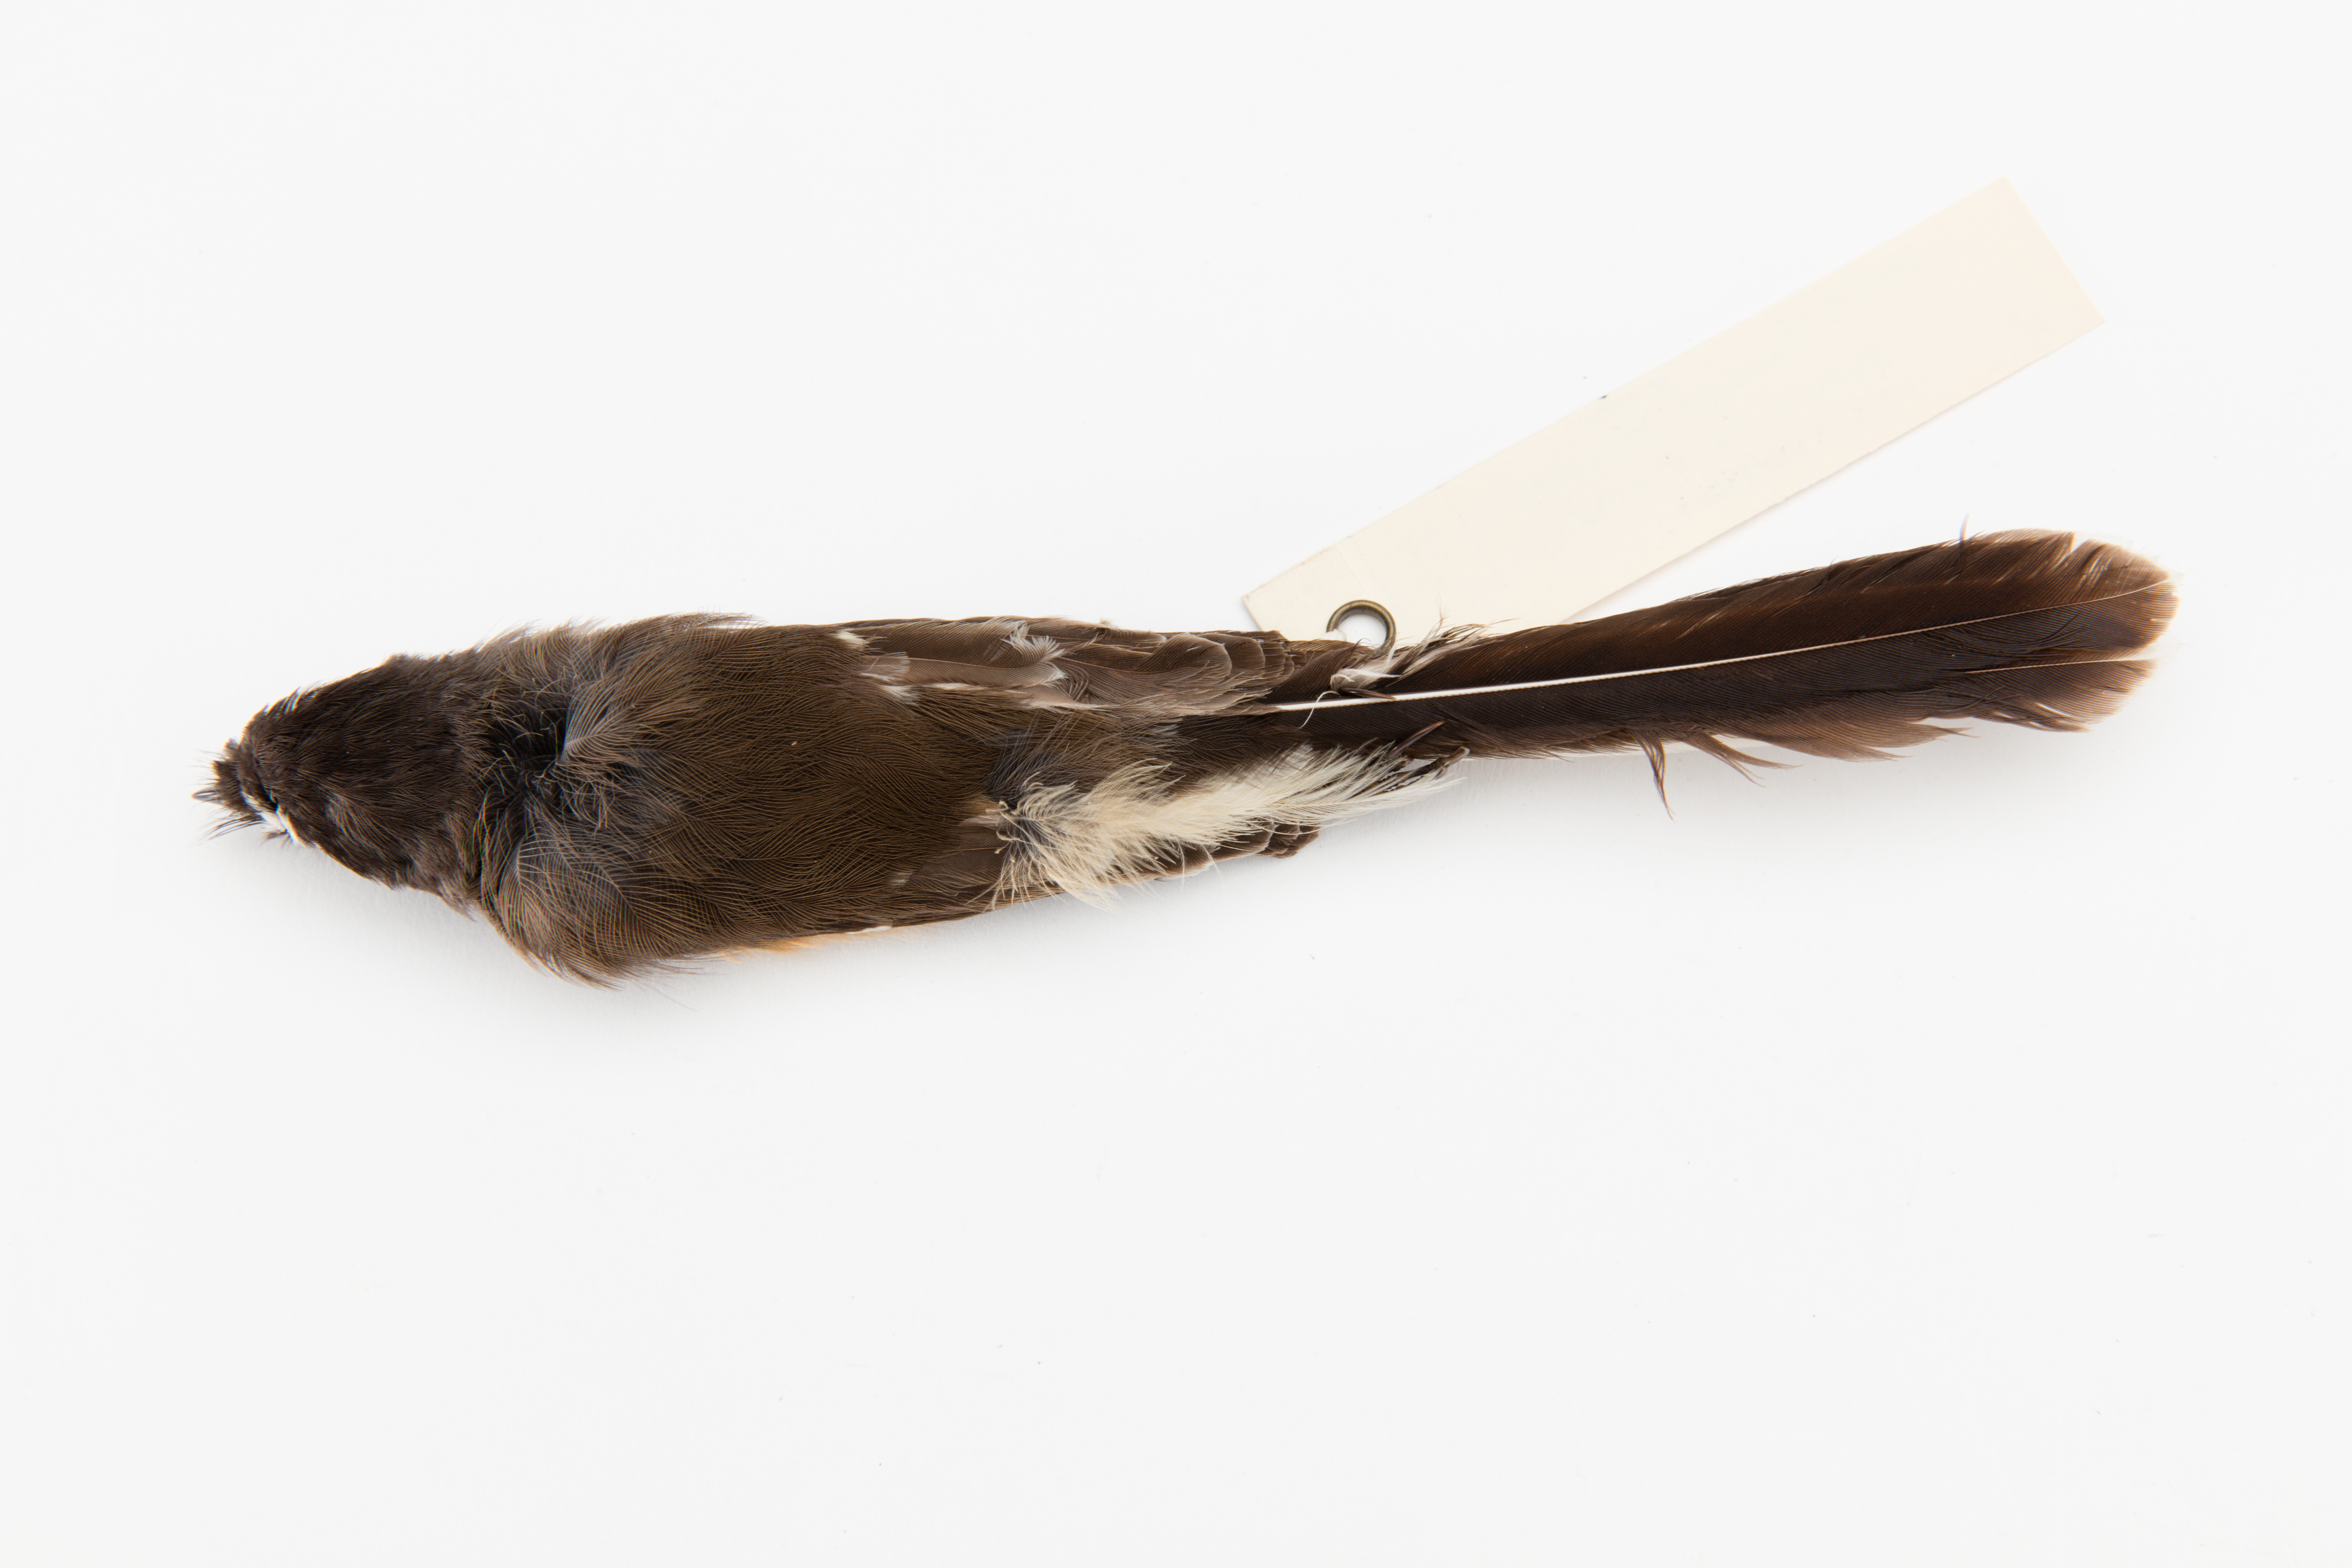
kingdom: Animalia
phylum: Chordata
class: Aves
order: Passeriformes
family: Rhipiduridae
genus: Rhipidura
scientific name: Rhipidura fuliginosa
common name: New zealand fantail
